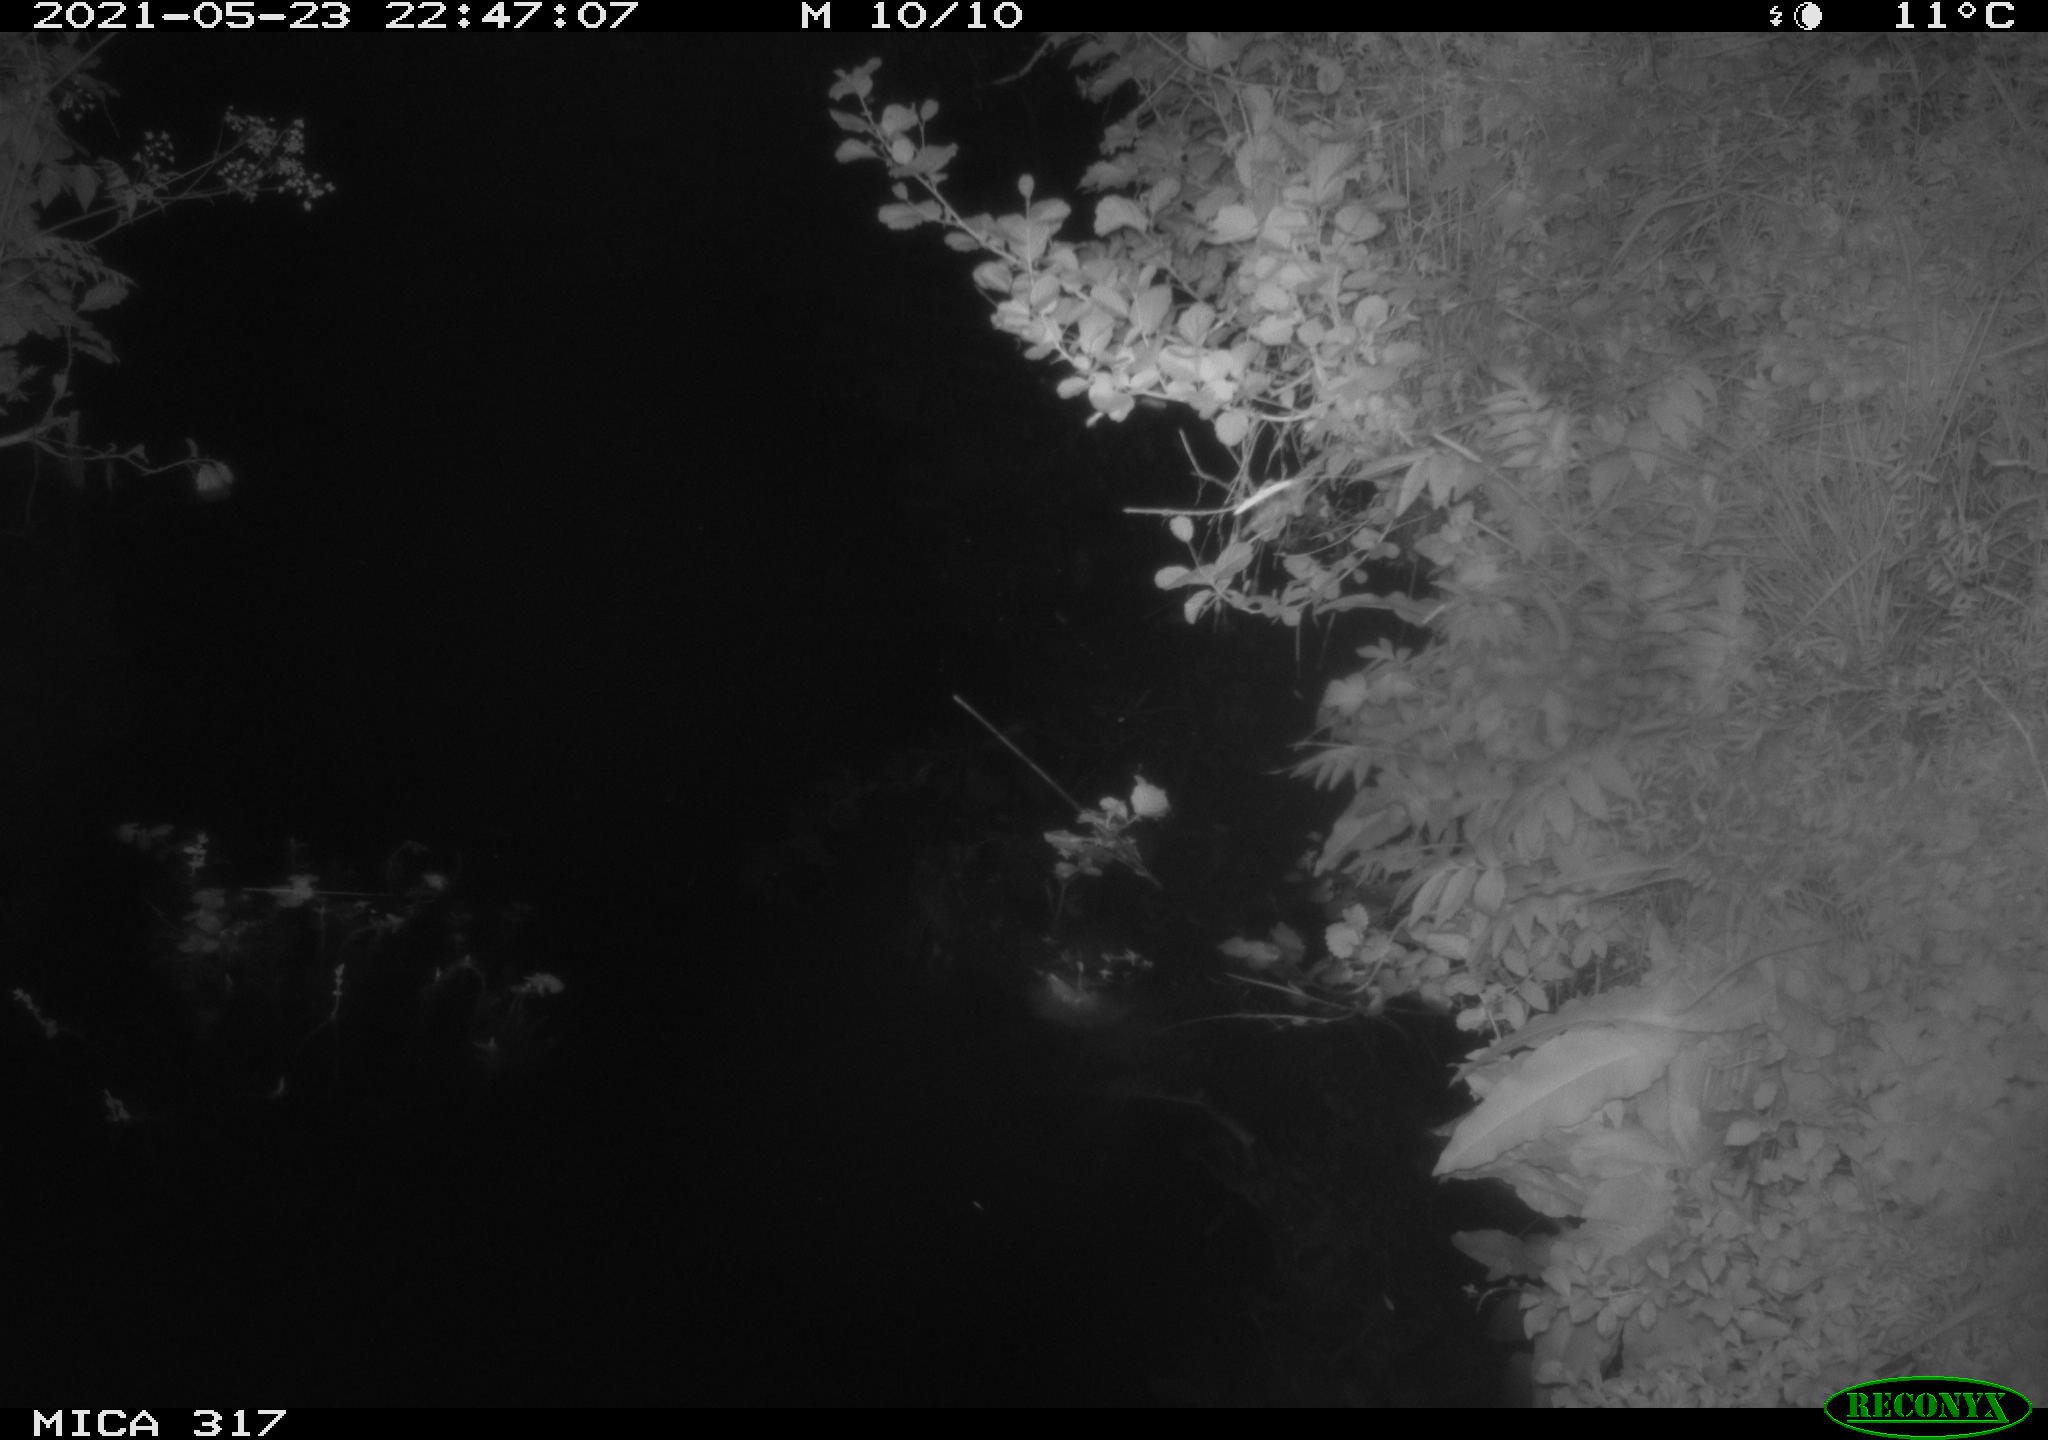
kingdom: Animalia
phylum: Chordata
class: Aves
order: Anseriformes
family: Anatidae
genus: Anas
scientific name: Anas
